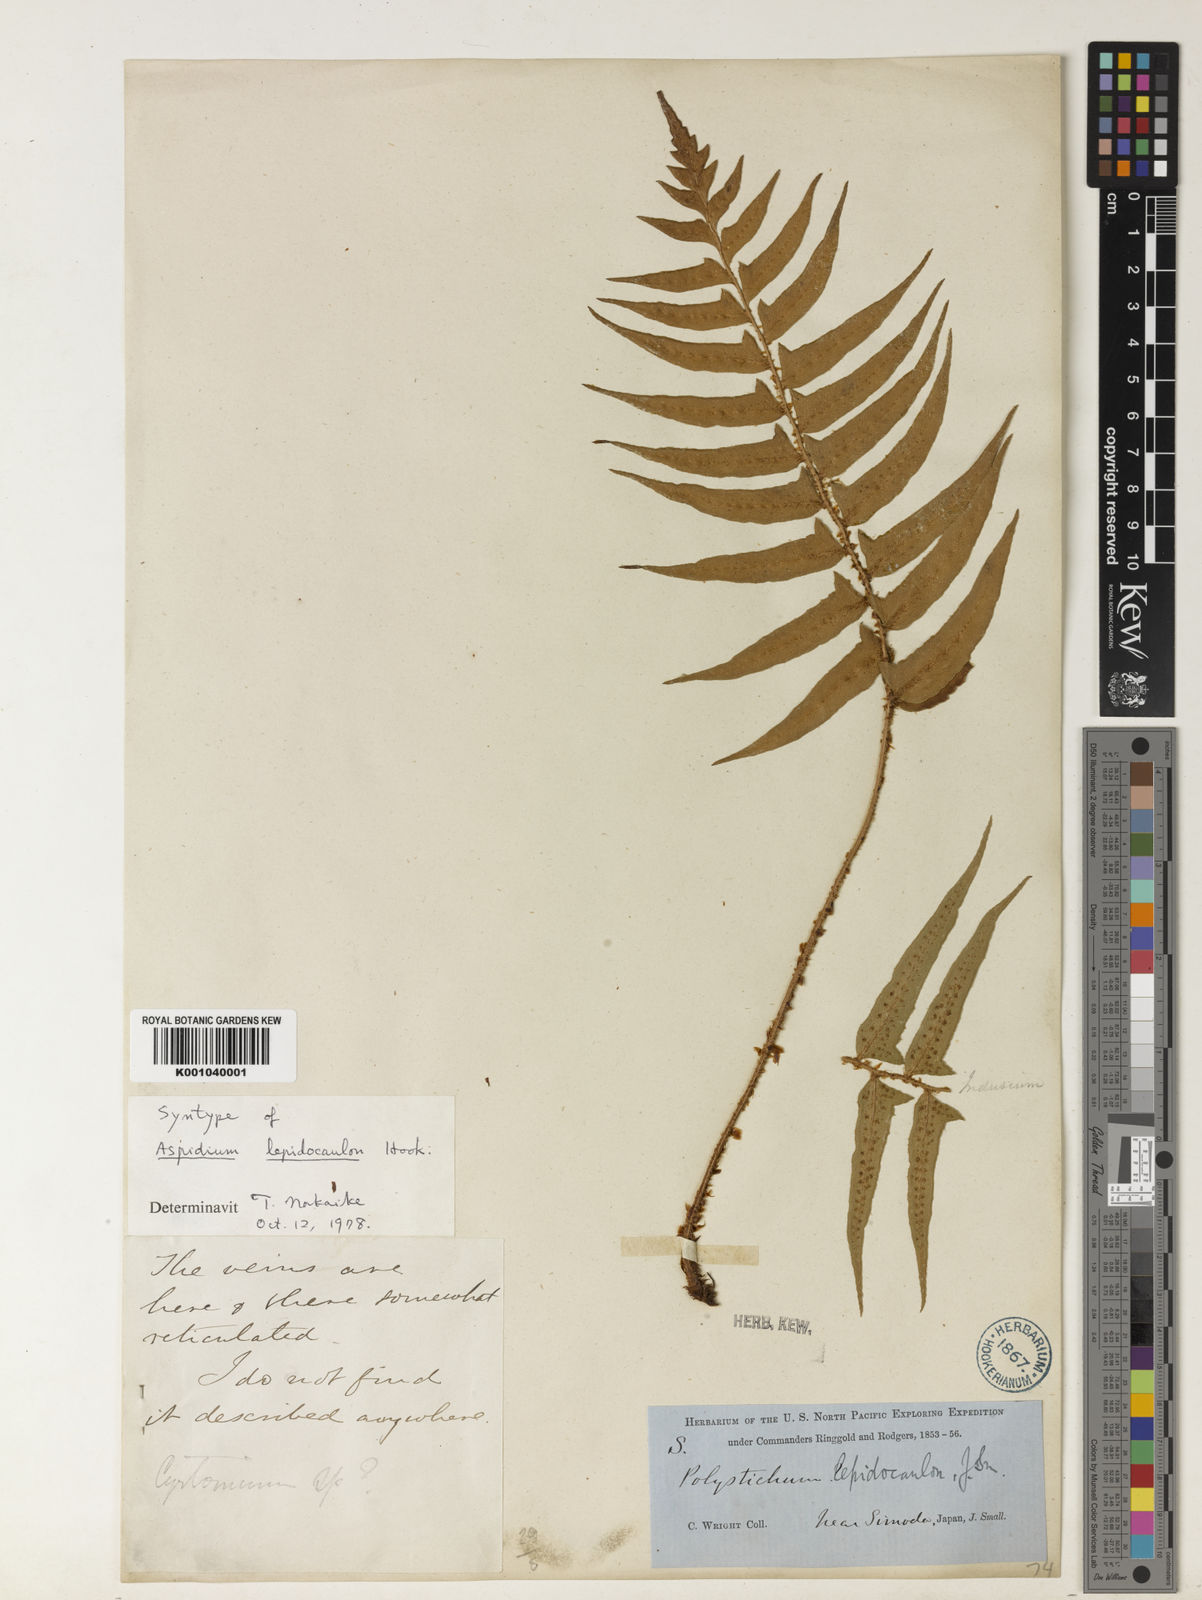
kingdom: Plantae
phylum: Tracheophyta
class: Polypodiopsida
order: Polypodiales
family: Dryopteridaceae
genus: Polystichum
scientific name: Polystichum lepidocaulon
